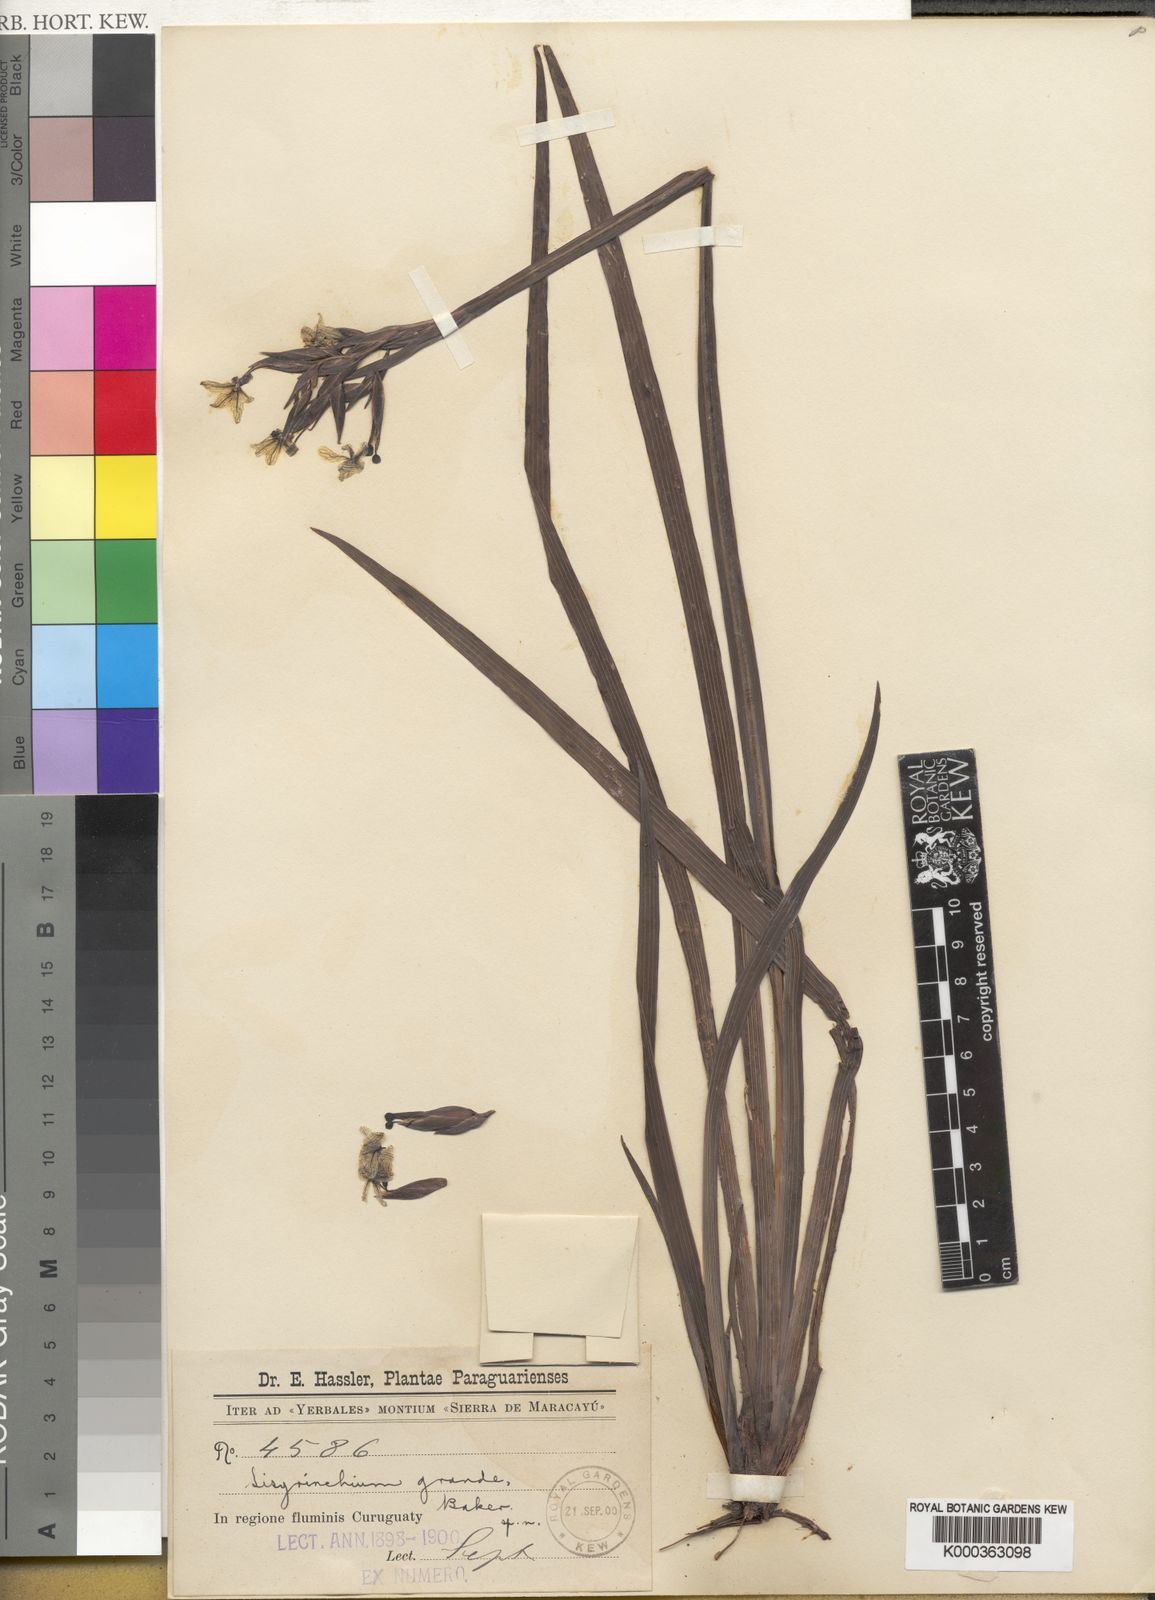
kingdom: Plantae
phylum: Tracheophyta
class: Liliopsida
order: Asparagales
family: Iridaceae
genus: Sisyrinchium
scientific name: Sisyrinchium palmifolium
